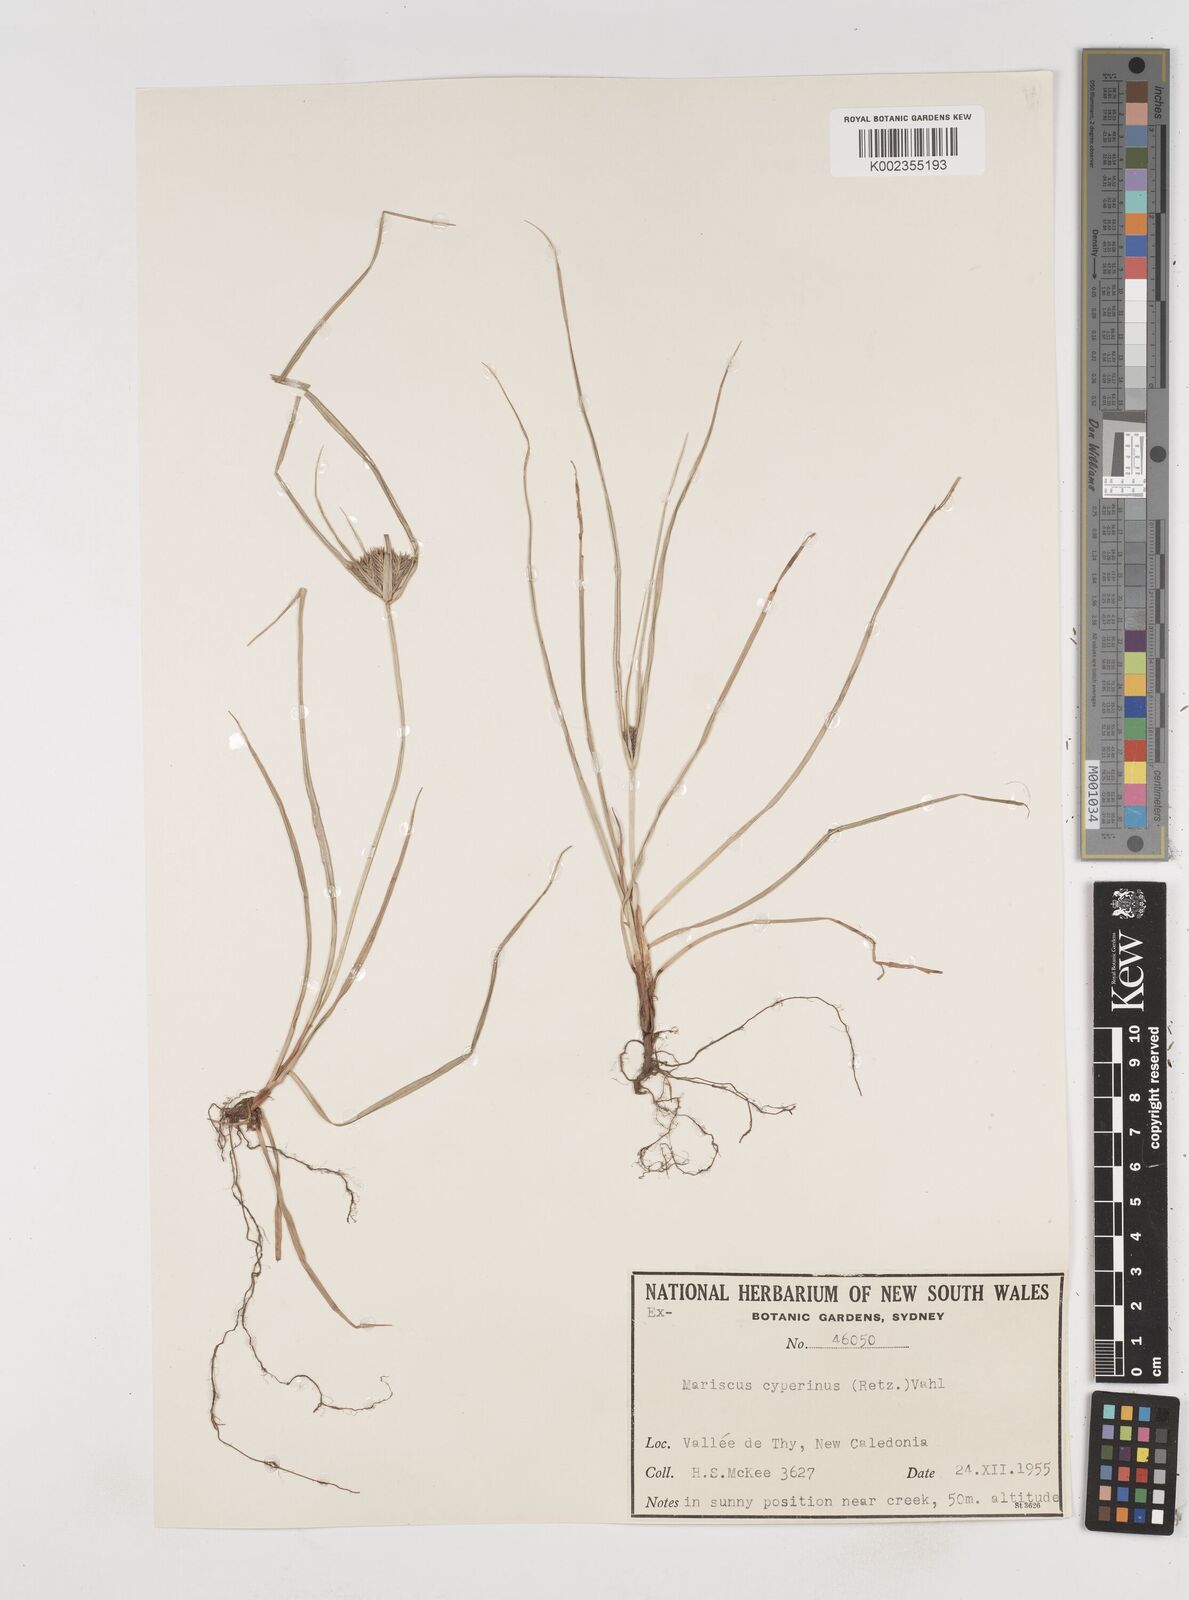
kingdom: Plantae
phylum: Tracheophyta
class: Liliopsida
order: Poales
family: Cyperaceae
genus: Cyperus
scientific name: Cyperus cyperinus
